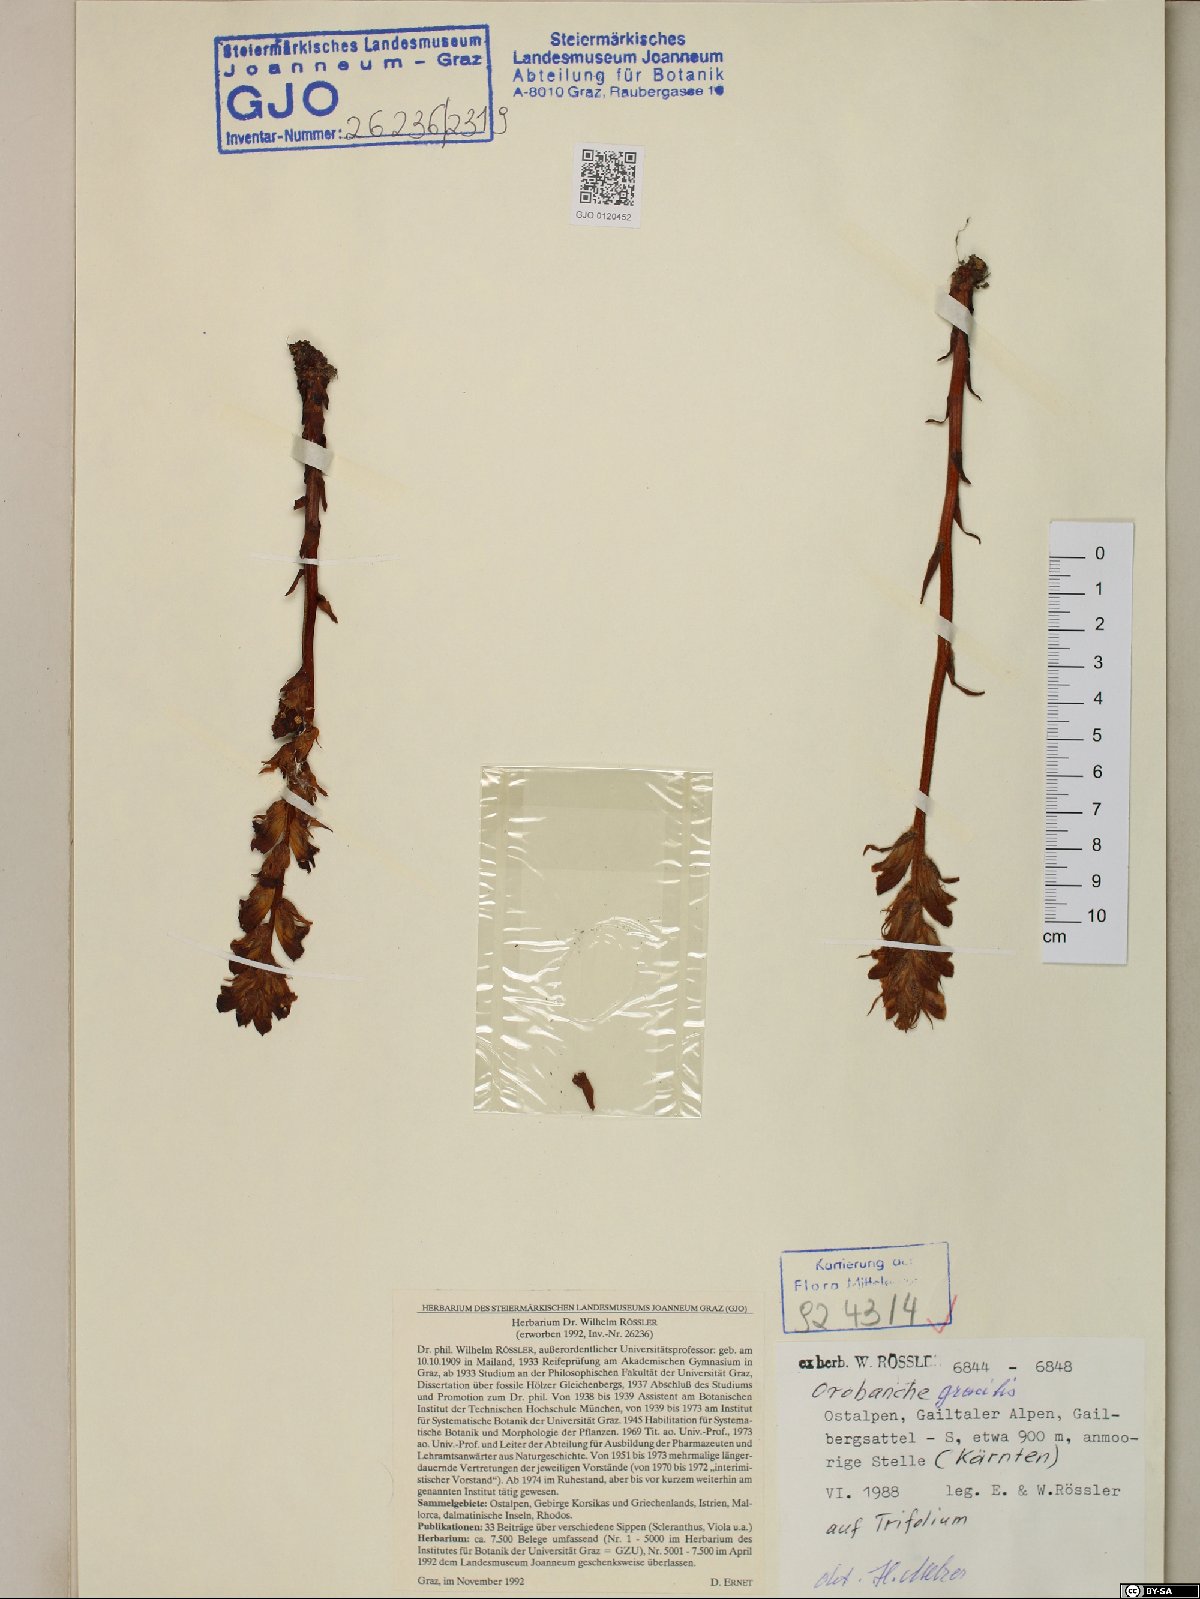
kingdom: Plantae
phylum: Tracheophyta
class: Magnoliopsida
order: Lamiales
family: Orobanchaceae
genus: Orobanche
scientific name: Orobanche gracilis
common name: Slender broomrape
